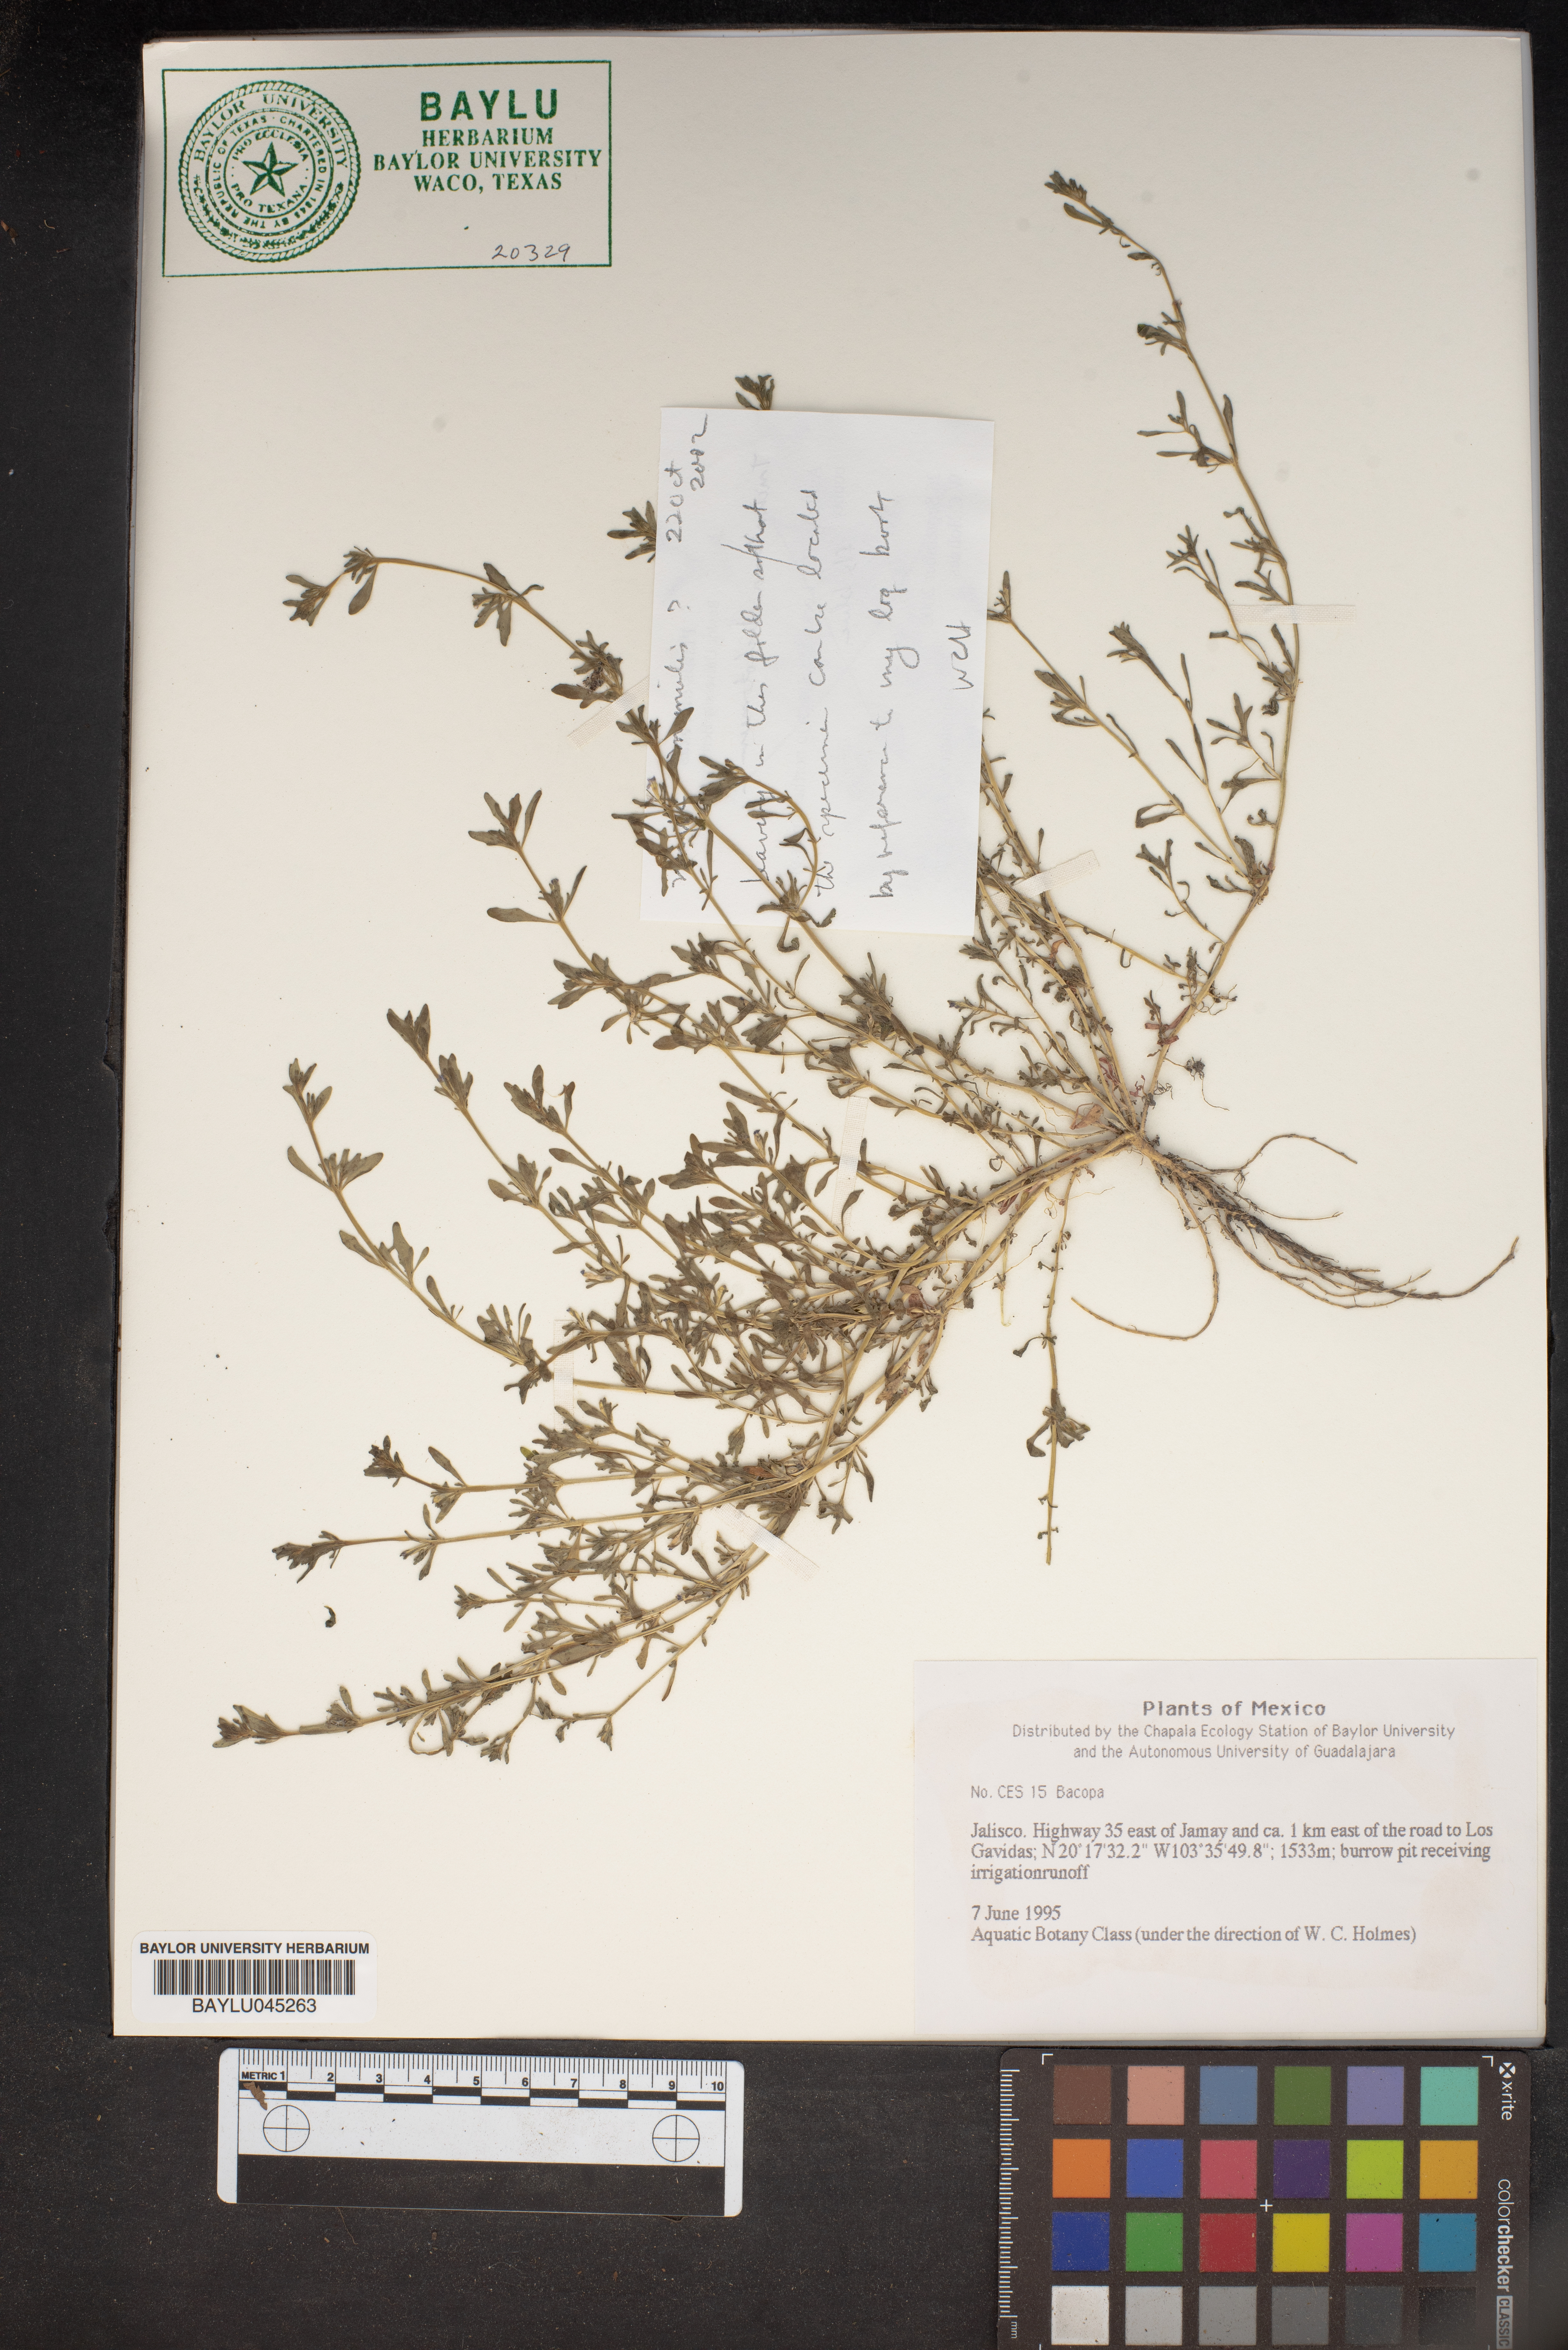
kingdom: Plantae
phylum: Tracheophyta
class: Magnoliopsida
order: Lamiales
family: Plantaginaceae
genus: Bacopa
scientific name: Bacopa
